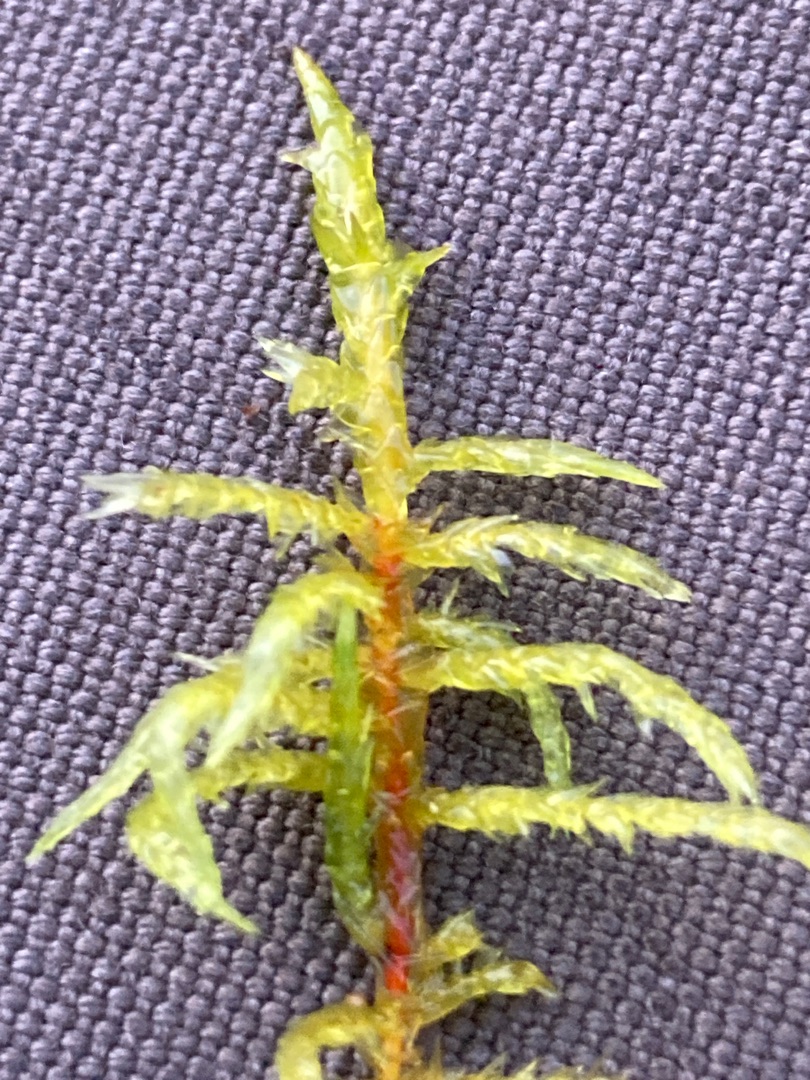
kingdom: Plantae
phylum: Bryophyta
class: Bryopsida
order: Hypnales
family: Pylaisiaceae
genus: Calliergonella
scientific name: Calliergonella cuspidata
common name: Spids spydmos
